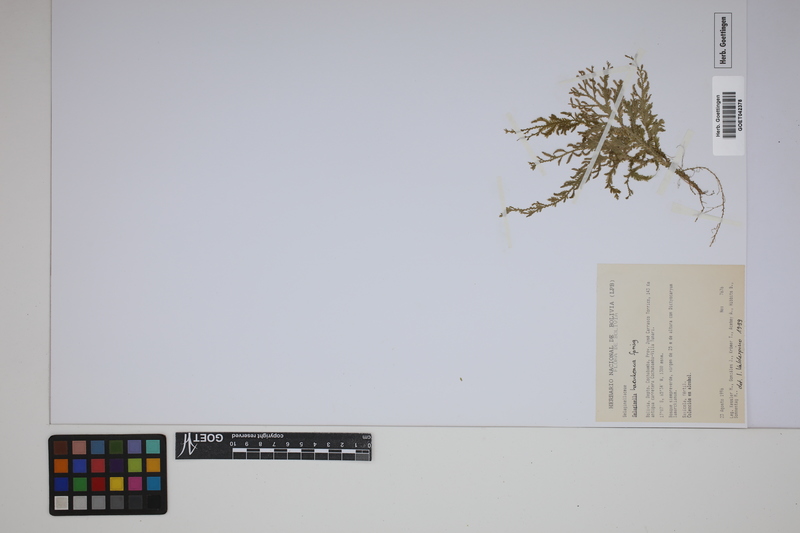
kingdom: Plantae
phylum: Tracheophyta
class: Lycopodiopsida
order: Selaginellales
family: Selaginellaceae
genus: Selaginella
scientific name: Selaginella haenkeana
